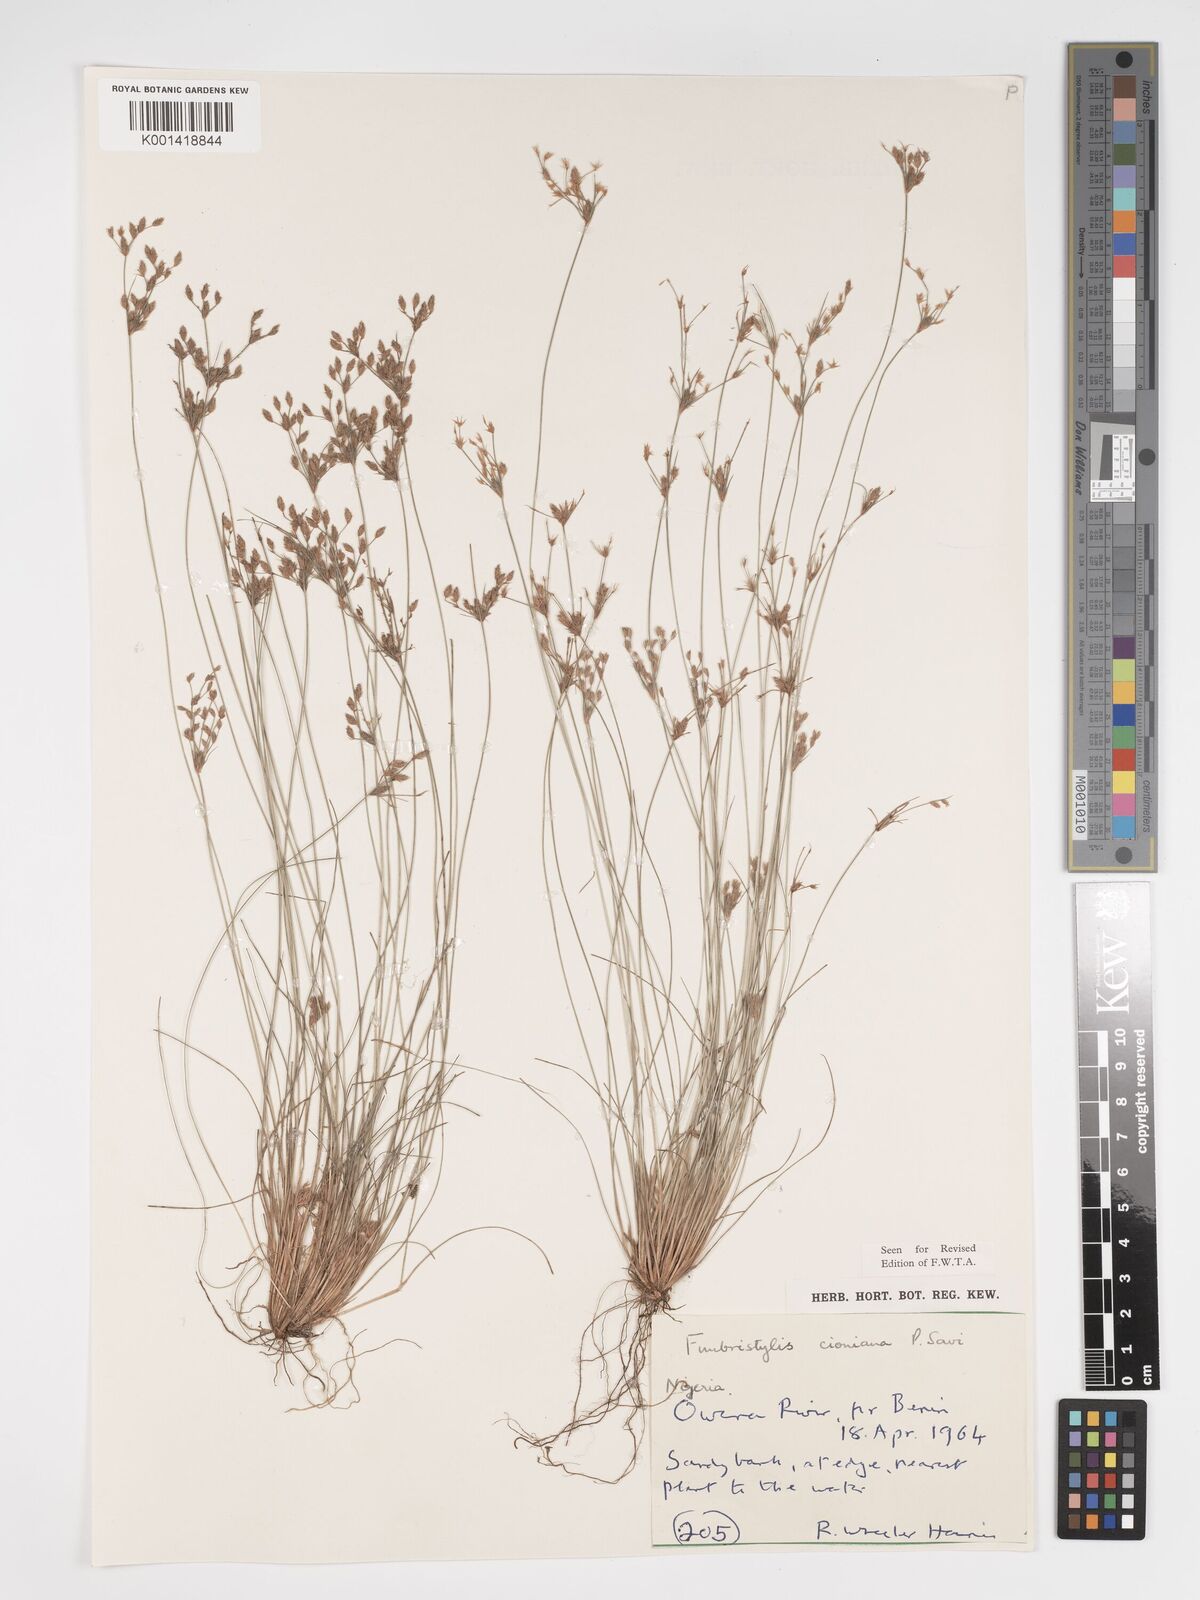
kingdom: Plantae
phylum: Tracheophyta
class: Liliopsida
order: Poales
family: Cyperaceae
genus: Bulbostylis
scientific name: Bulbostylis cioniana
